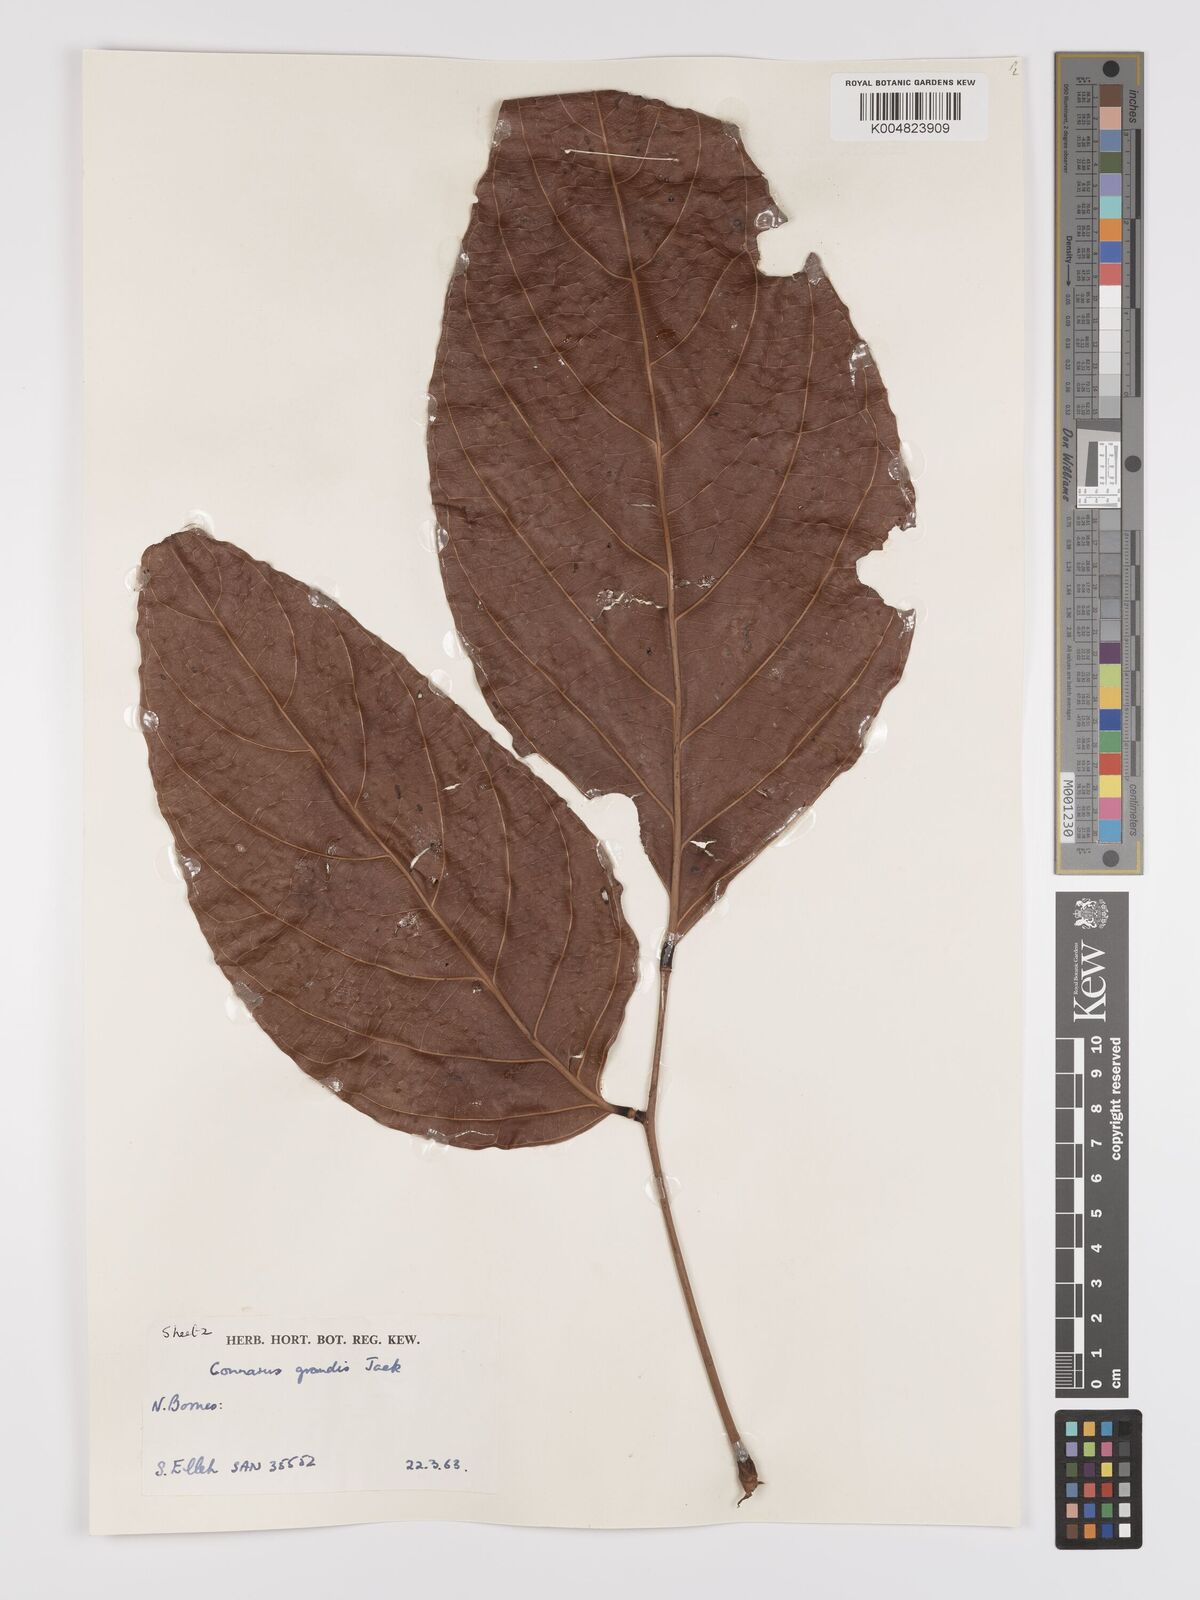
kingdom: Plantae
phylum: Tracheophyta
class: Magnoliopsida
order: Oxalidales
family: Connaraceae
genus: Connarus
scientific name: Connarus grandis
